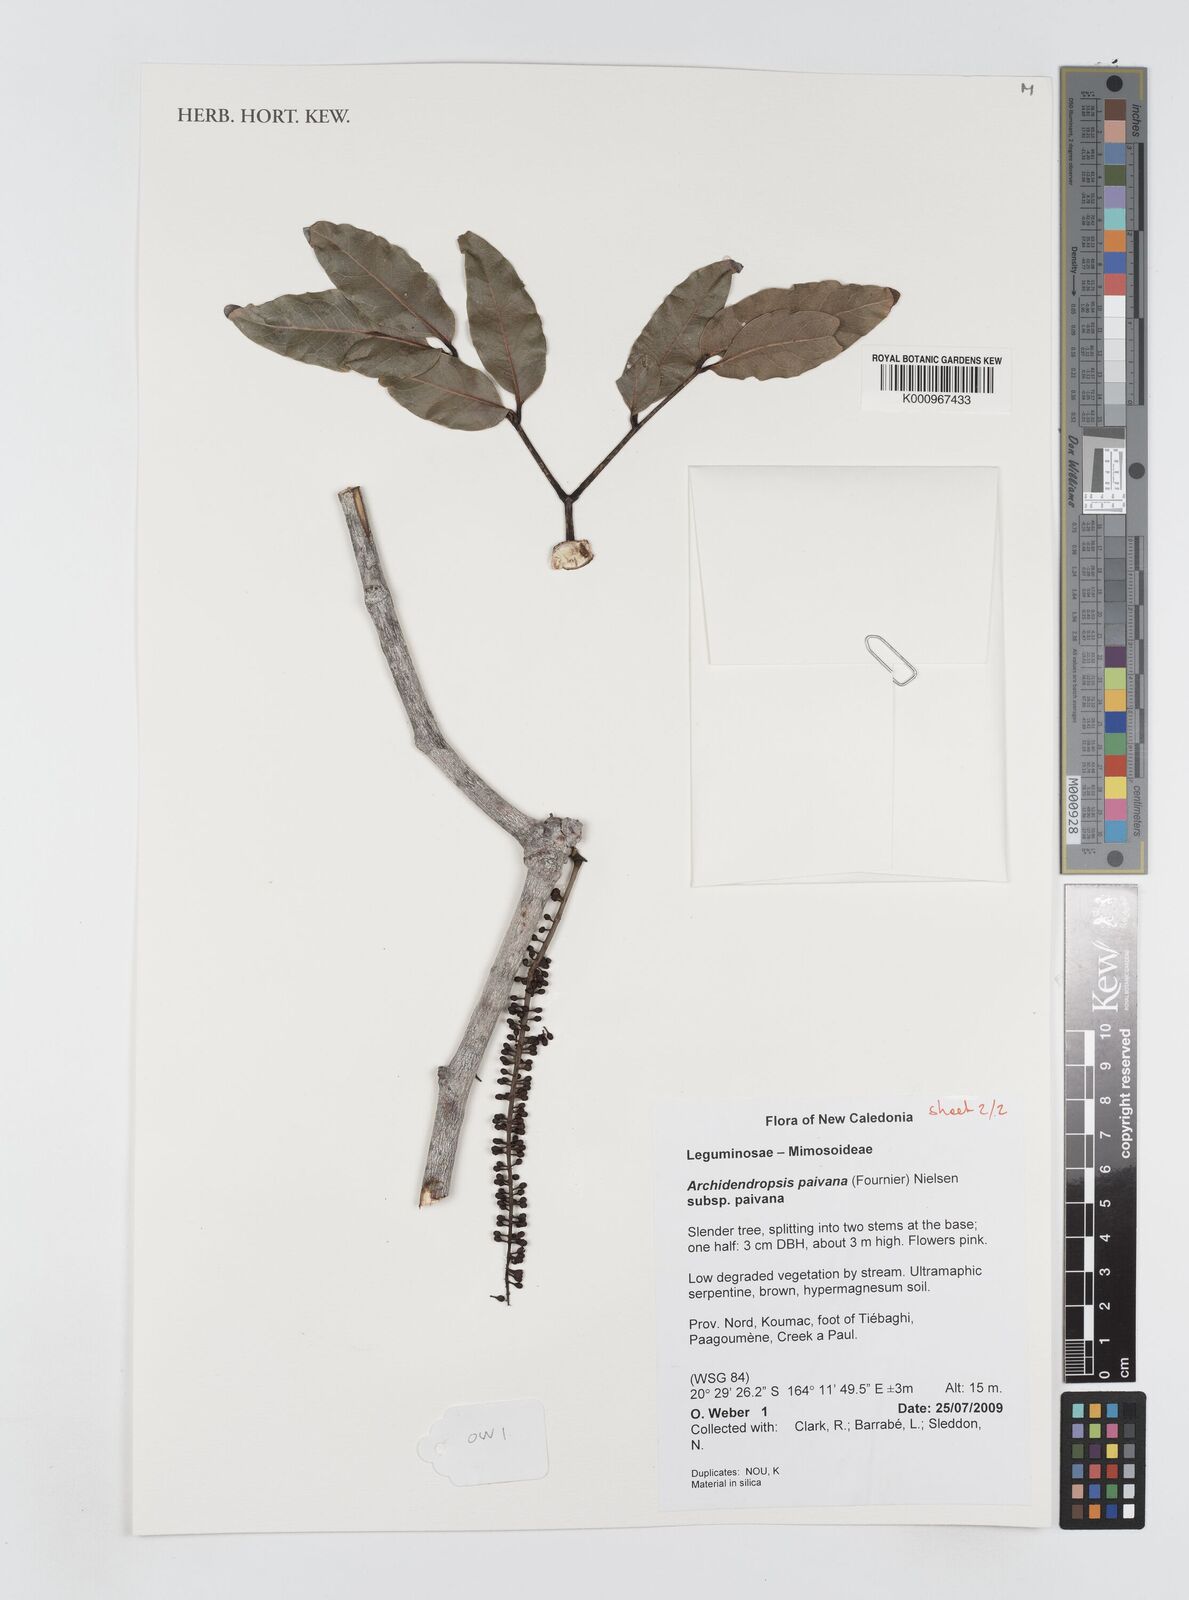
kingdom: Plantae
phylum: Tracheophyta
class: Magnoliopsida
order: Fabales
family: Fabaceae
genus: Archidendropsis
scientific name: Archidendropsis paivana
